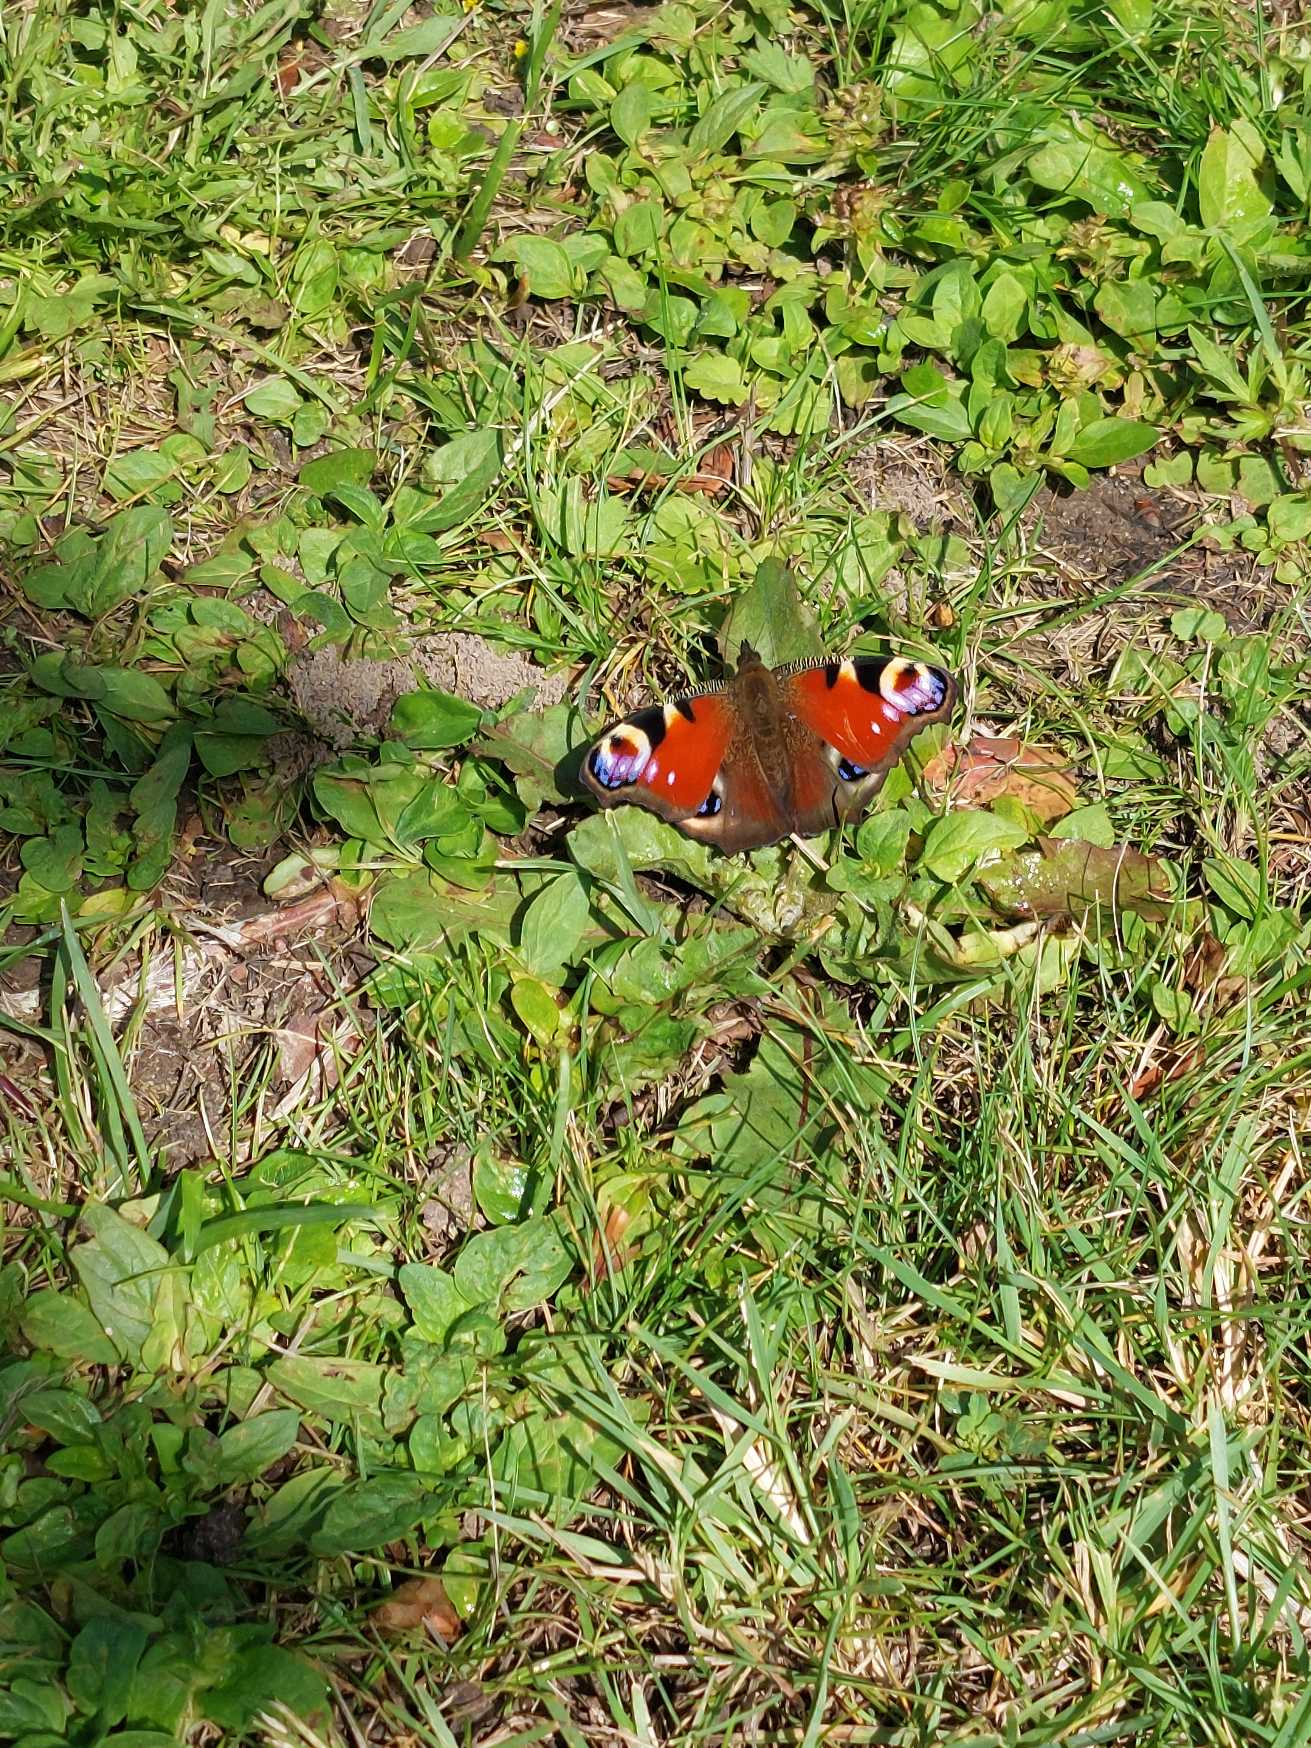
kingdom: Animalia
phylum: Arthropoda
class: Insecta
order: Lepidoptera
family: Nymphalidae
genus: Aglais
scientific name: Aglais io
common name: Dagpåfugleøje
